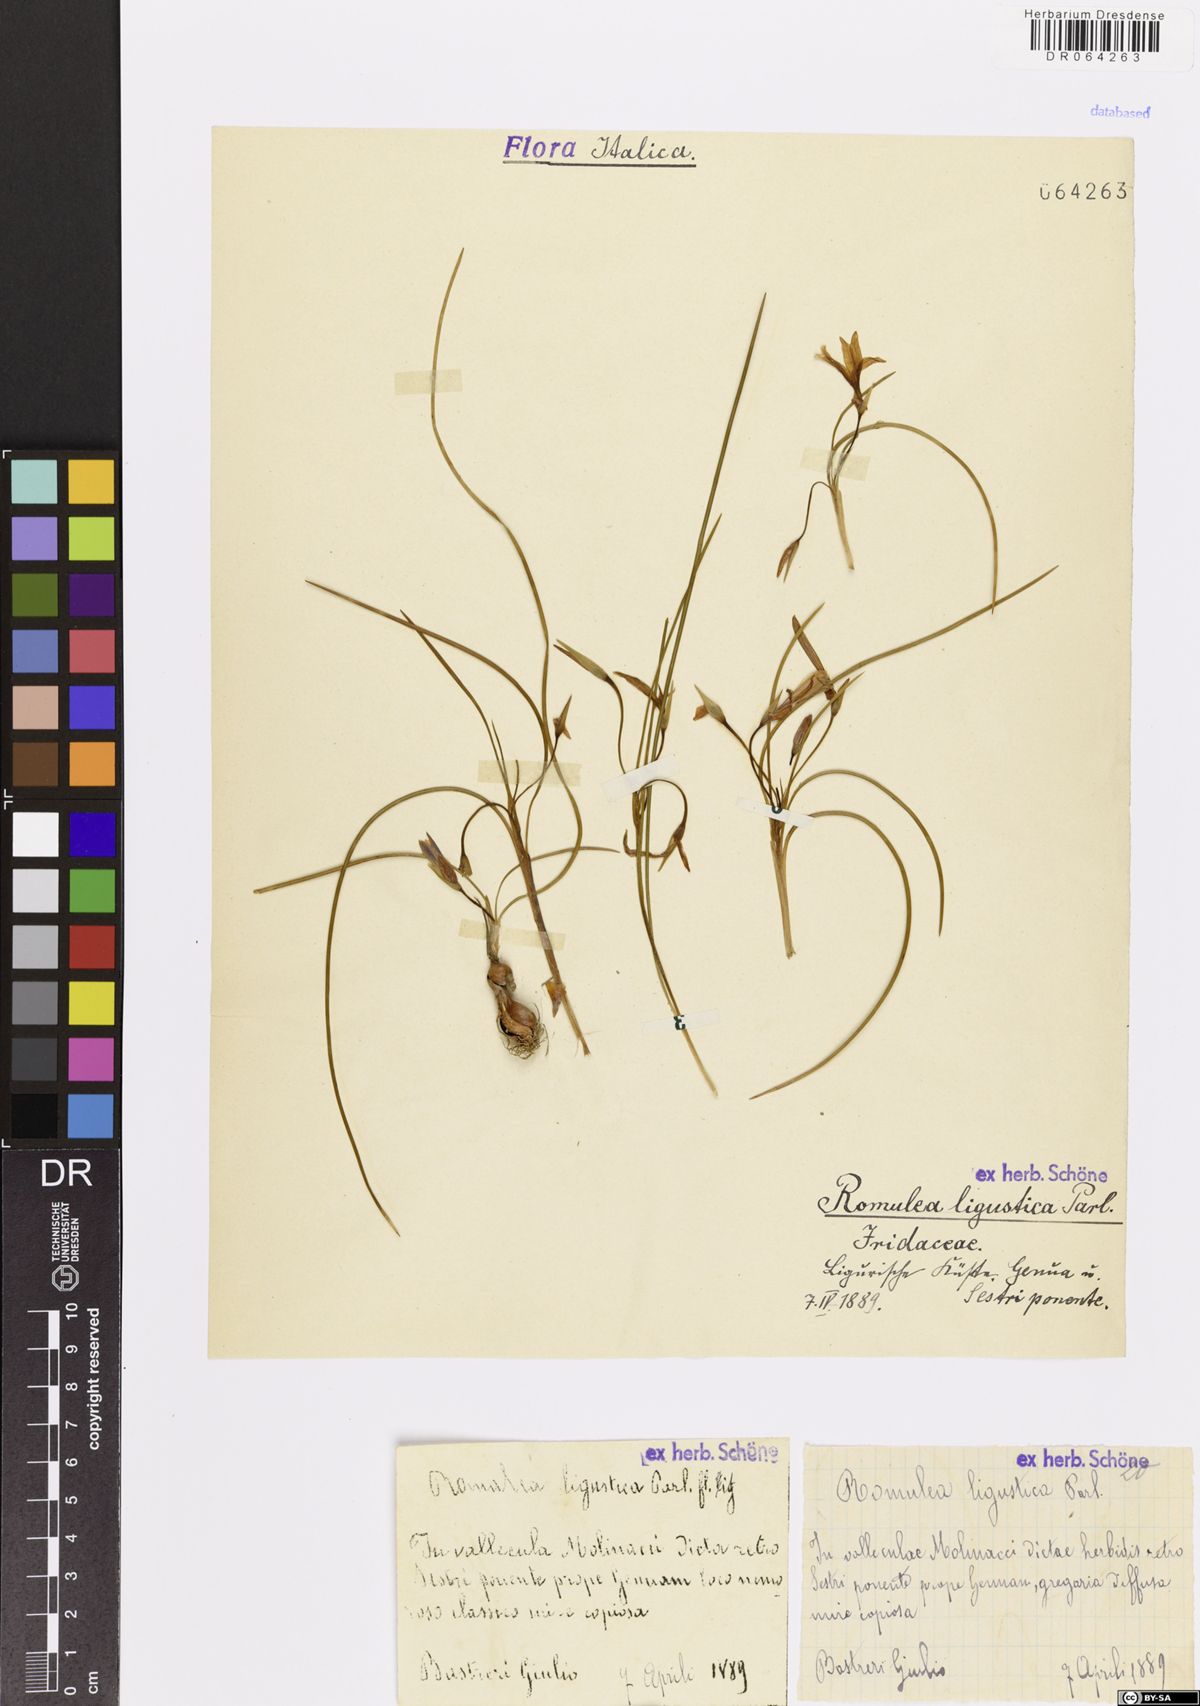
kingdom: Plantae
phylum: Tracheophyta
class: Liliopsida
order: Asparagales
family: Iridaceae
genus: Romulea
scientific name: Romulea ligustica
